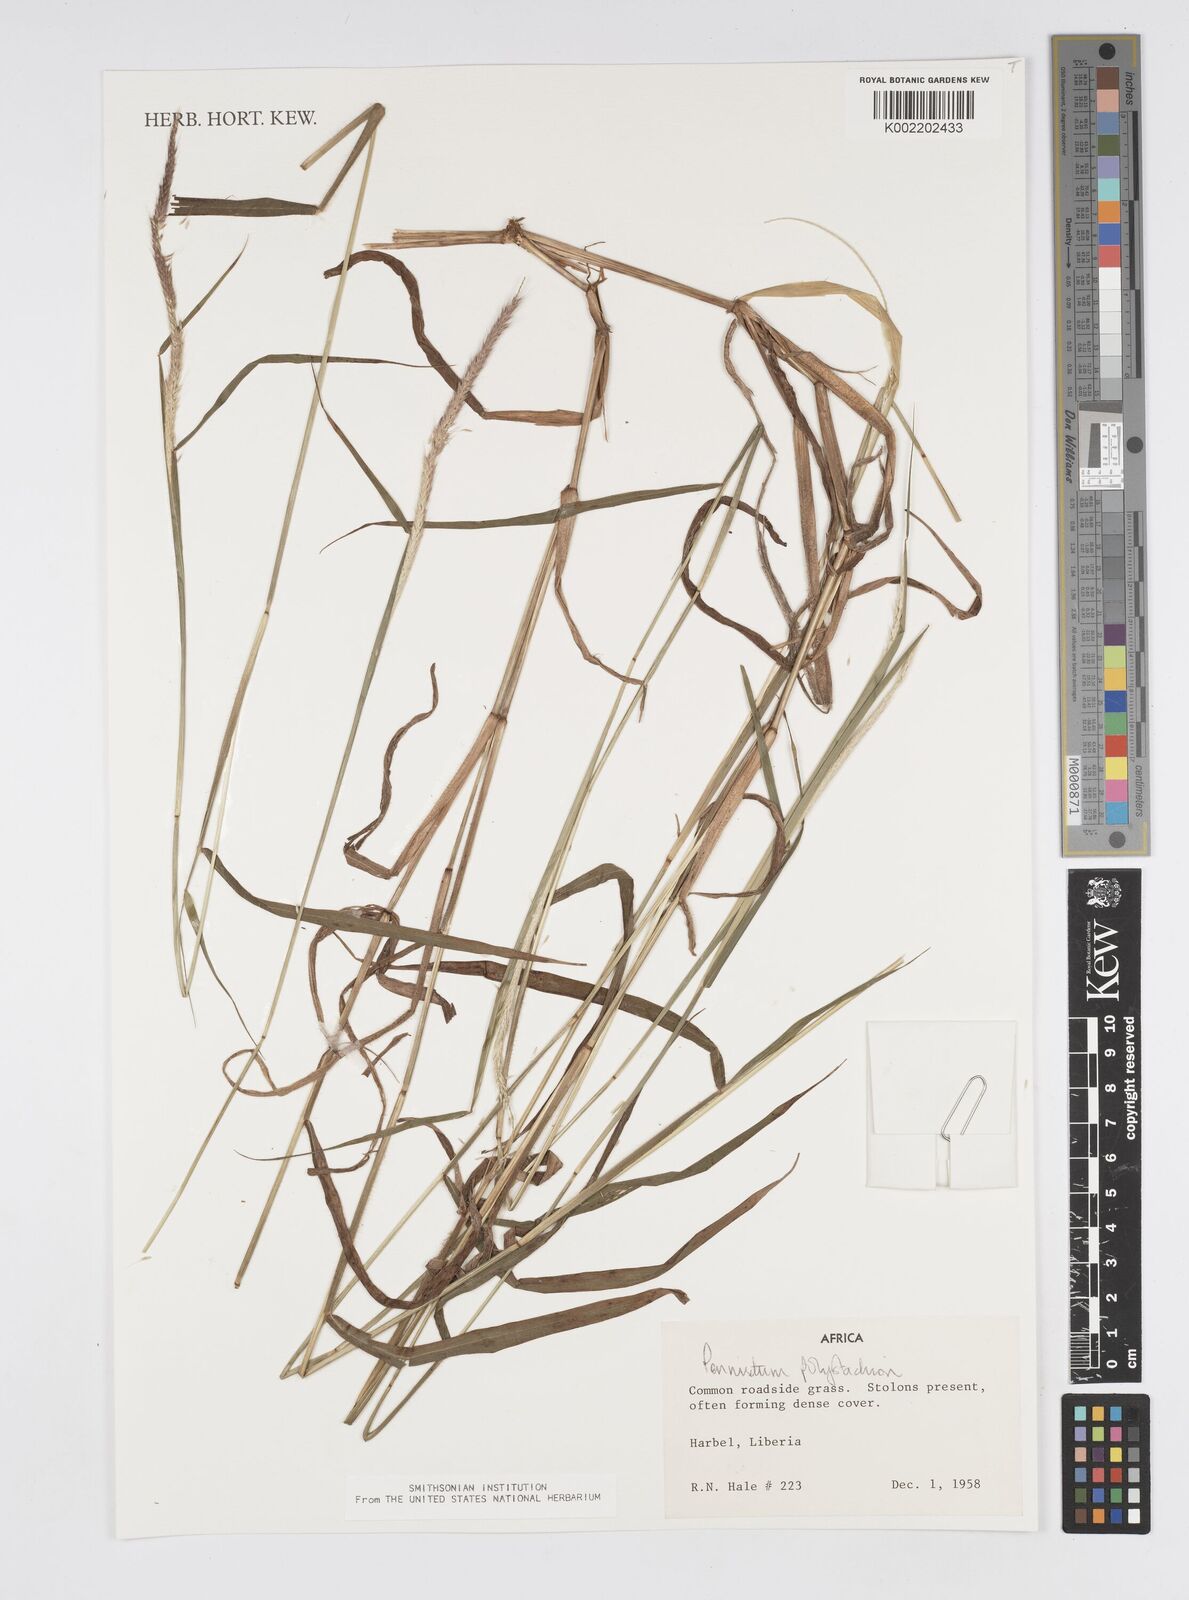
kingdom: Plantae
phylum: Tracheophyta
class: Liliopsida
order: Poales
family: Poaceae
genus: Setaria
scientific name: Setaria parviflora
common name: Knotroot bristle-grass
